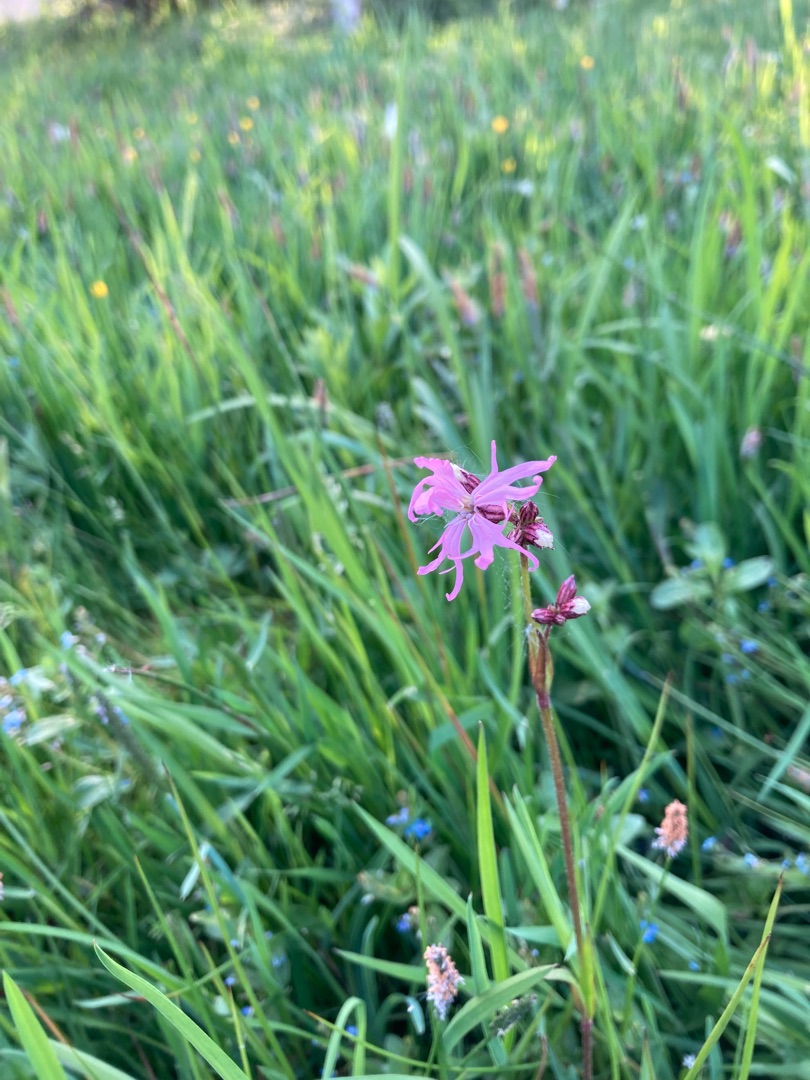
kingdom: Plantae
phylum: Tracheophyta
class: Magnoliopsida
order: Caryophyllales
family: Caryophyllaceae
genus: Silene
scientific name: Silene flos-cuculi
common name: Trævlekrone
